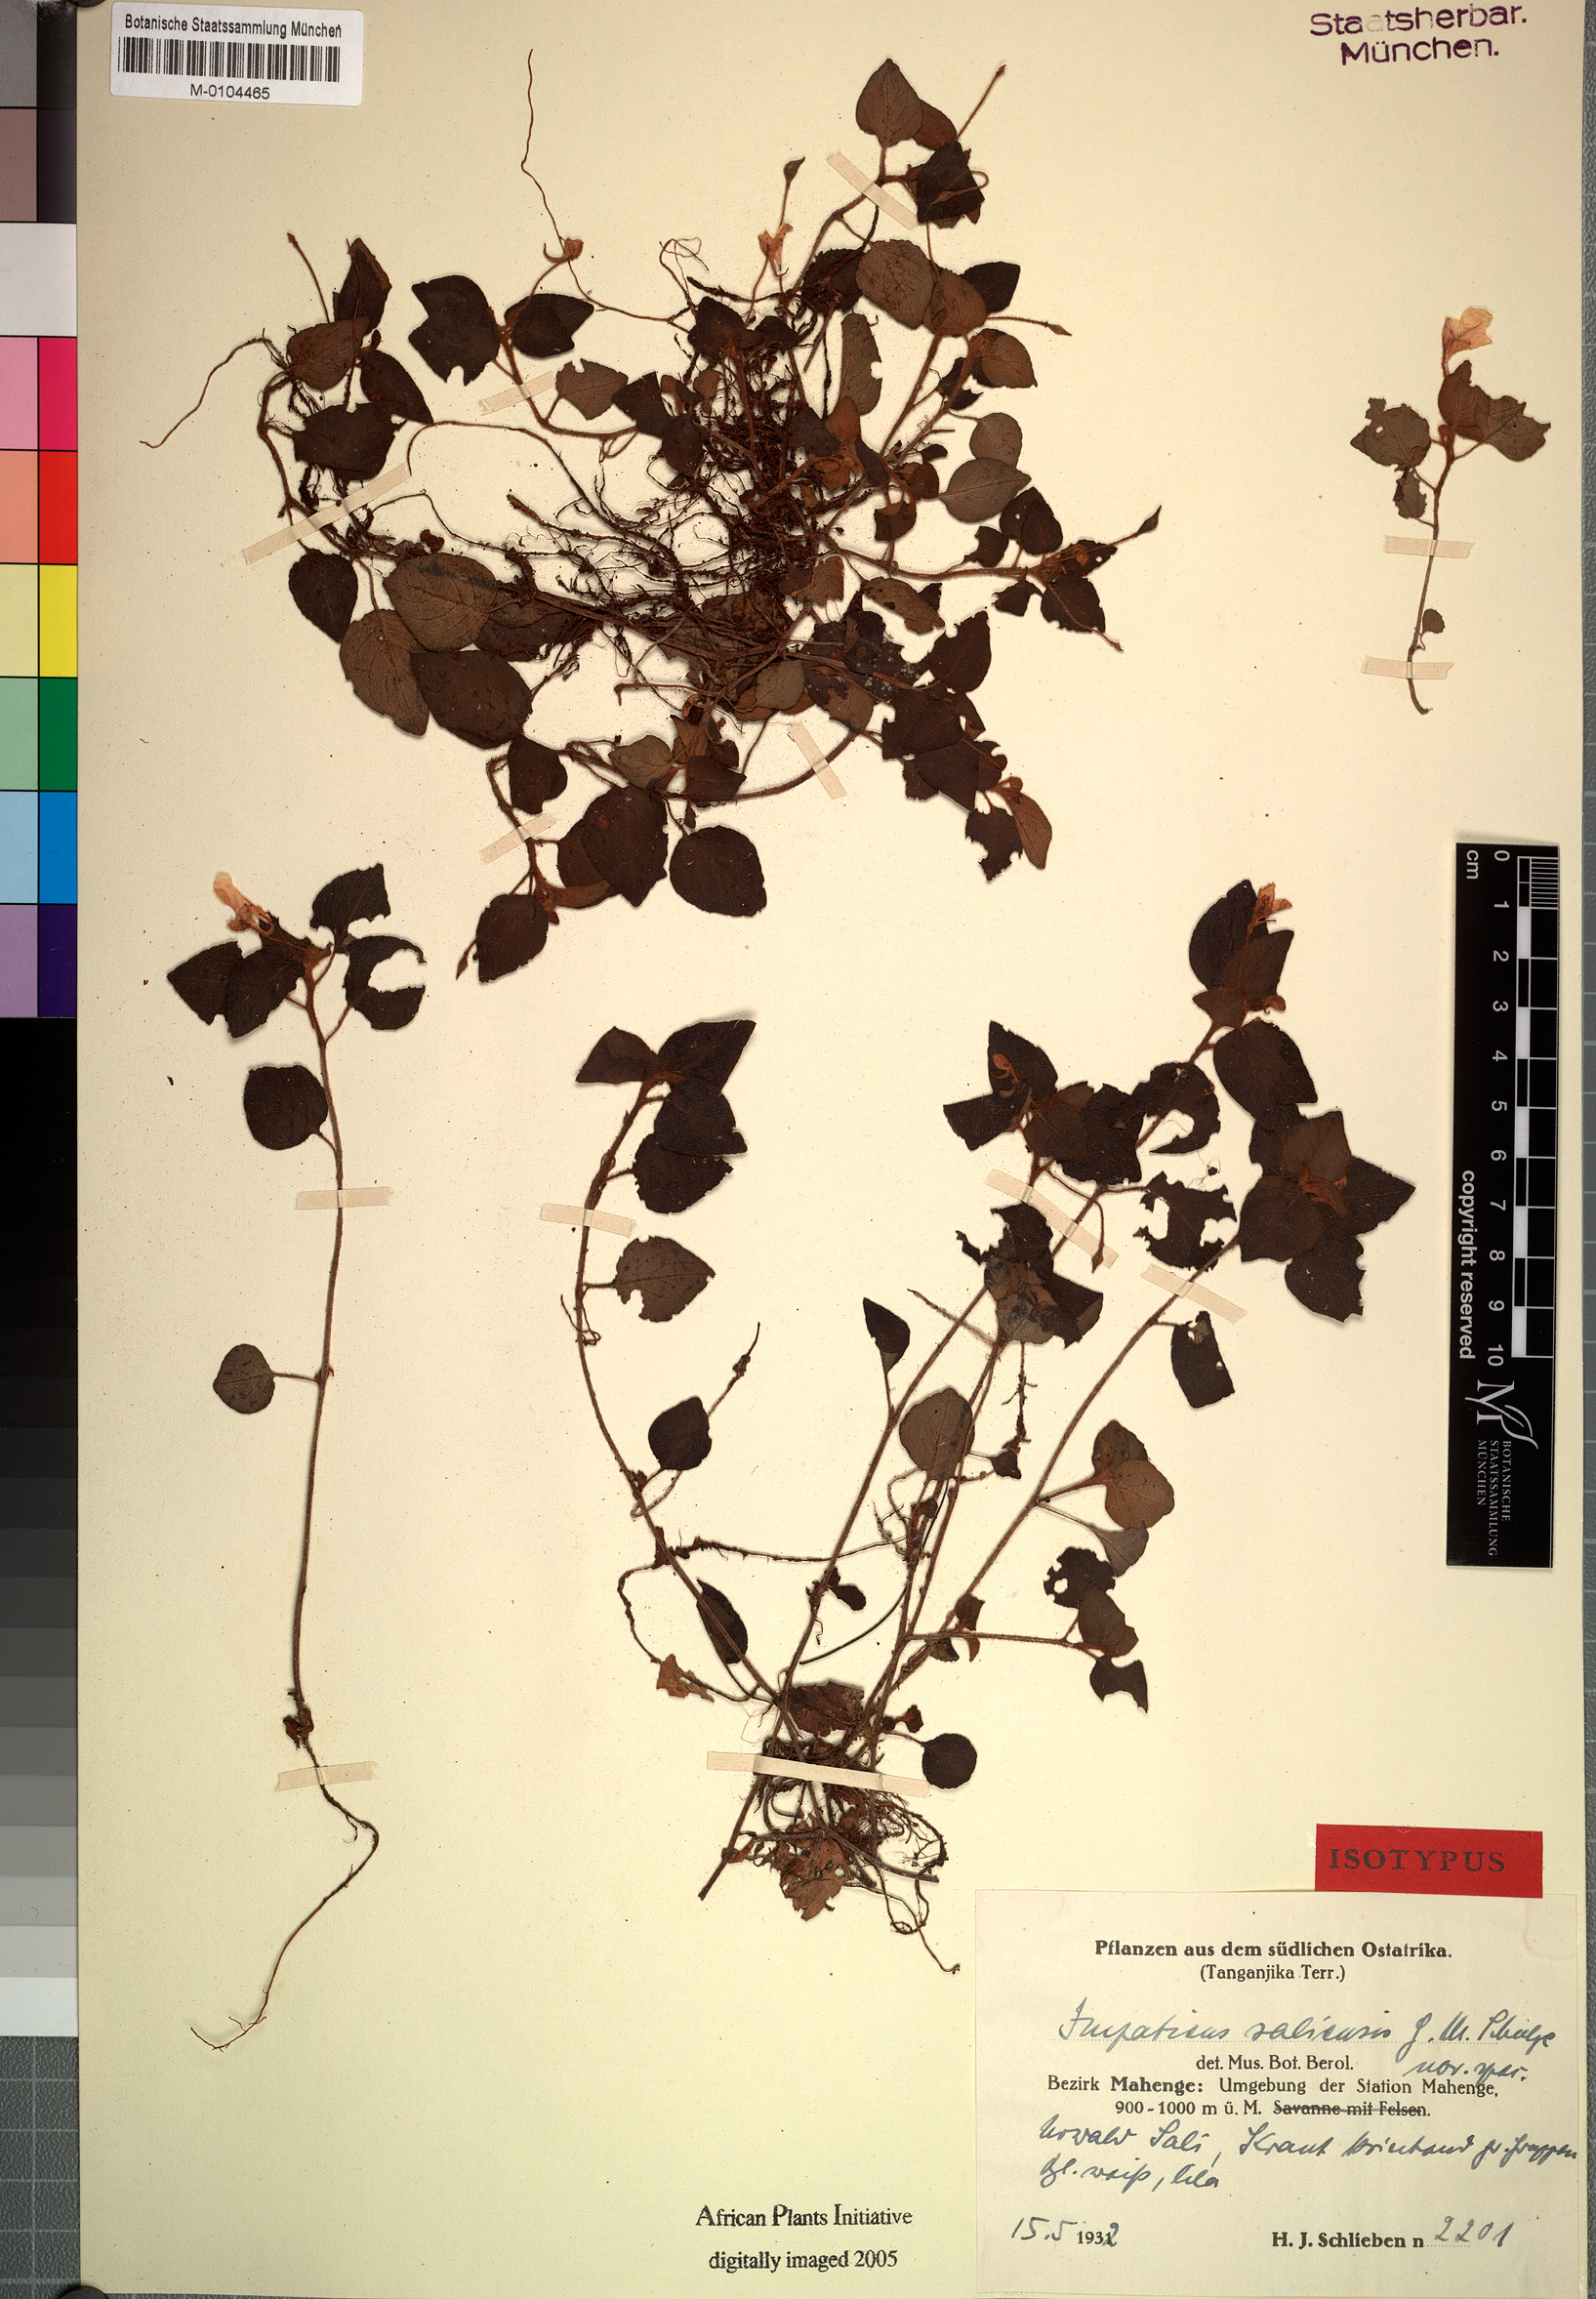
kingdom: Plantae
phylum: Tracheophyta
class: Magnoliopsida
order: Ericales
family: Balsaminaceae
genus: Impatiens
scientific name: Impatiens saliensis
